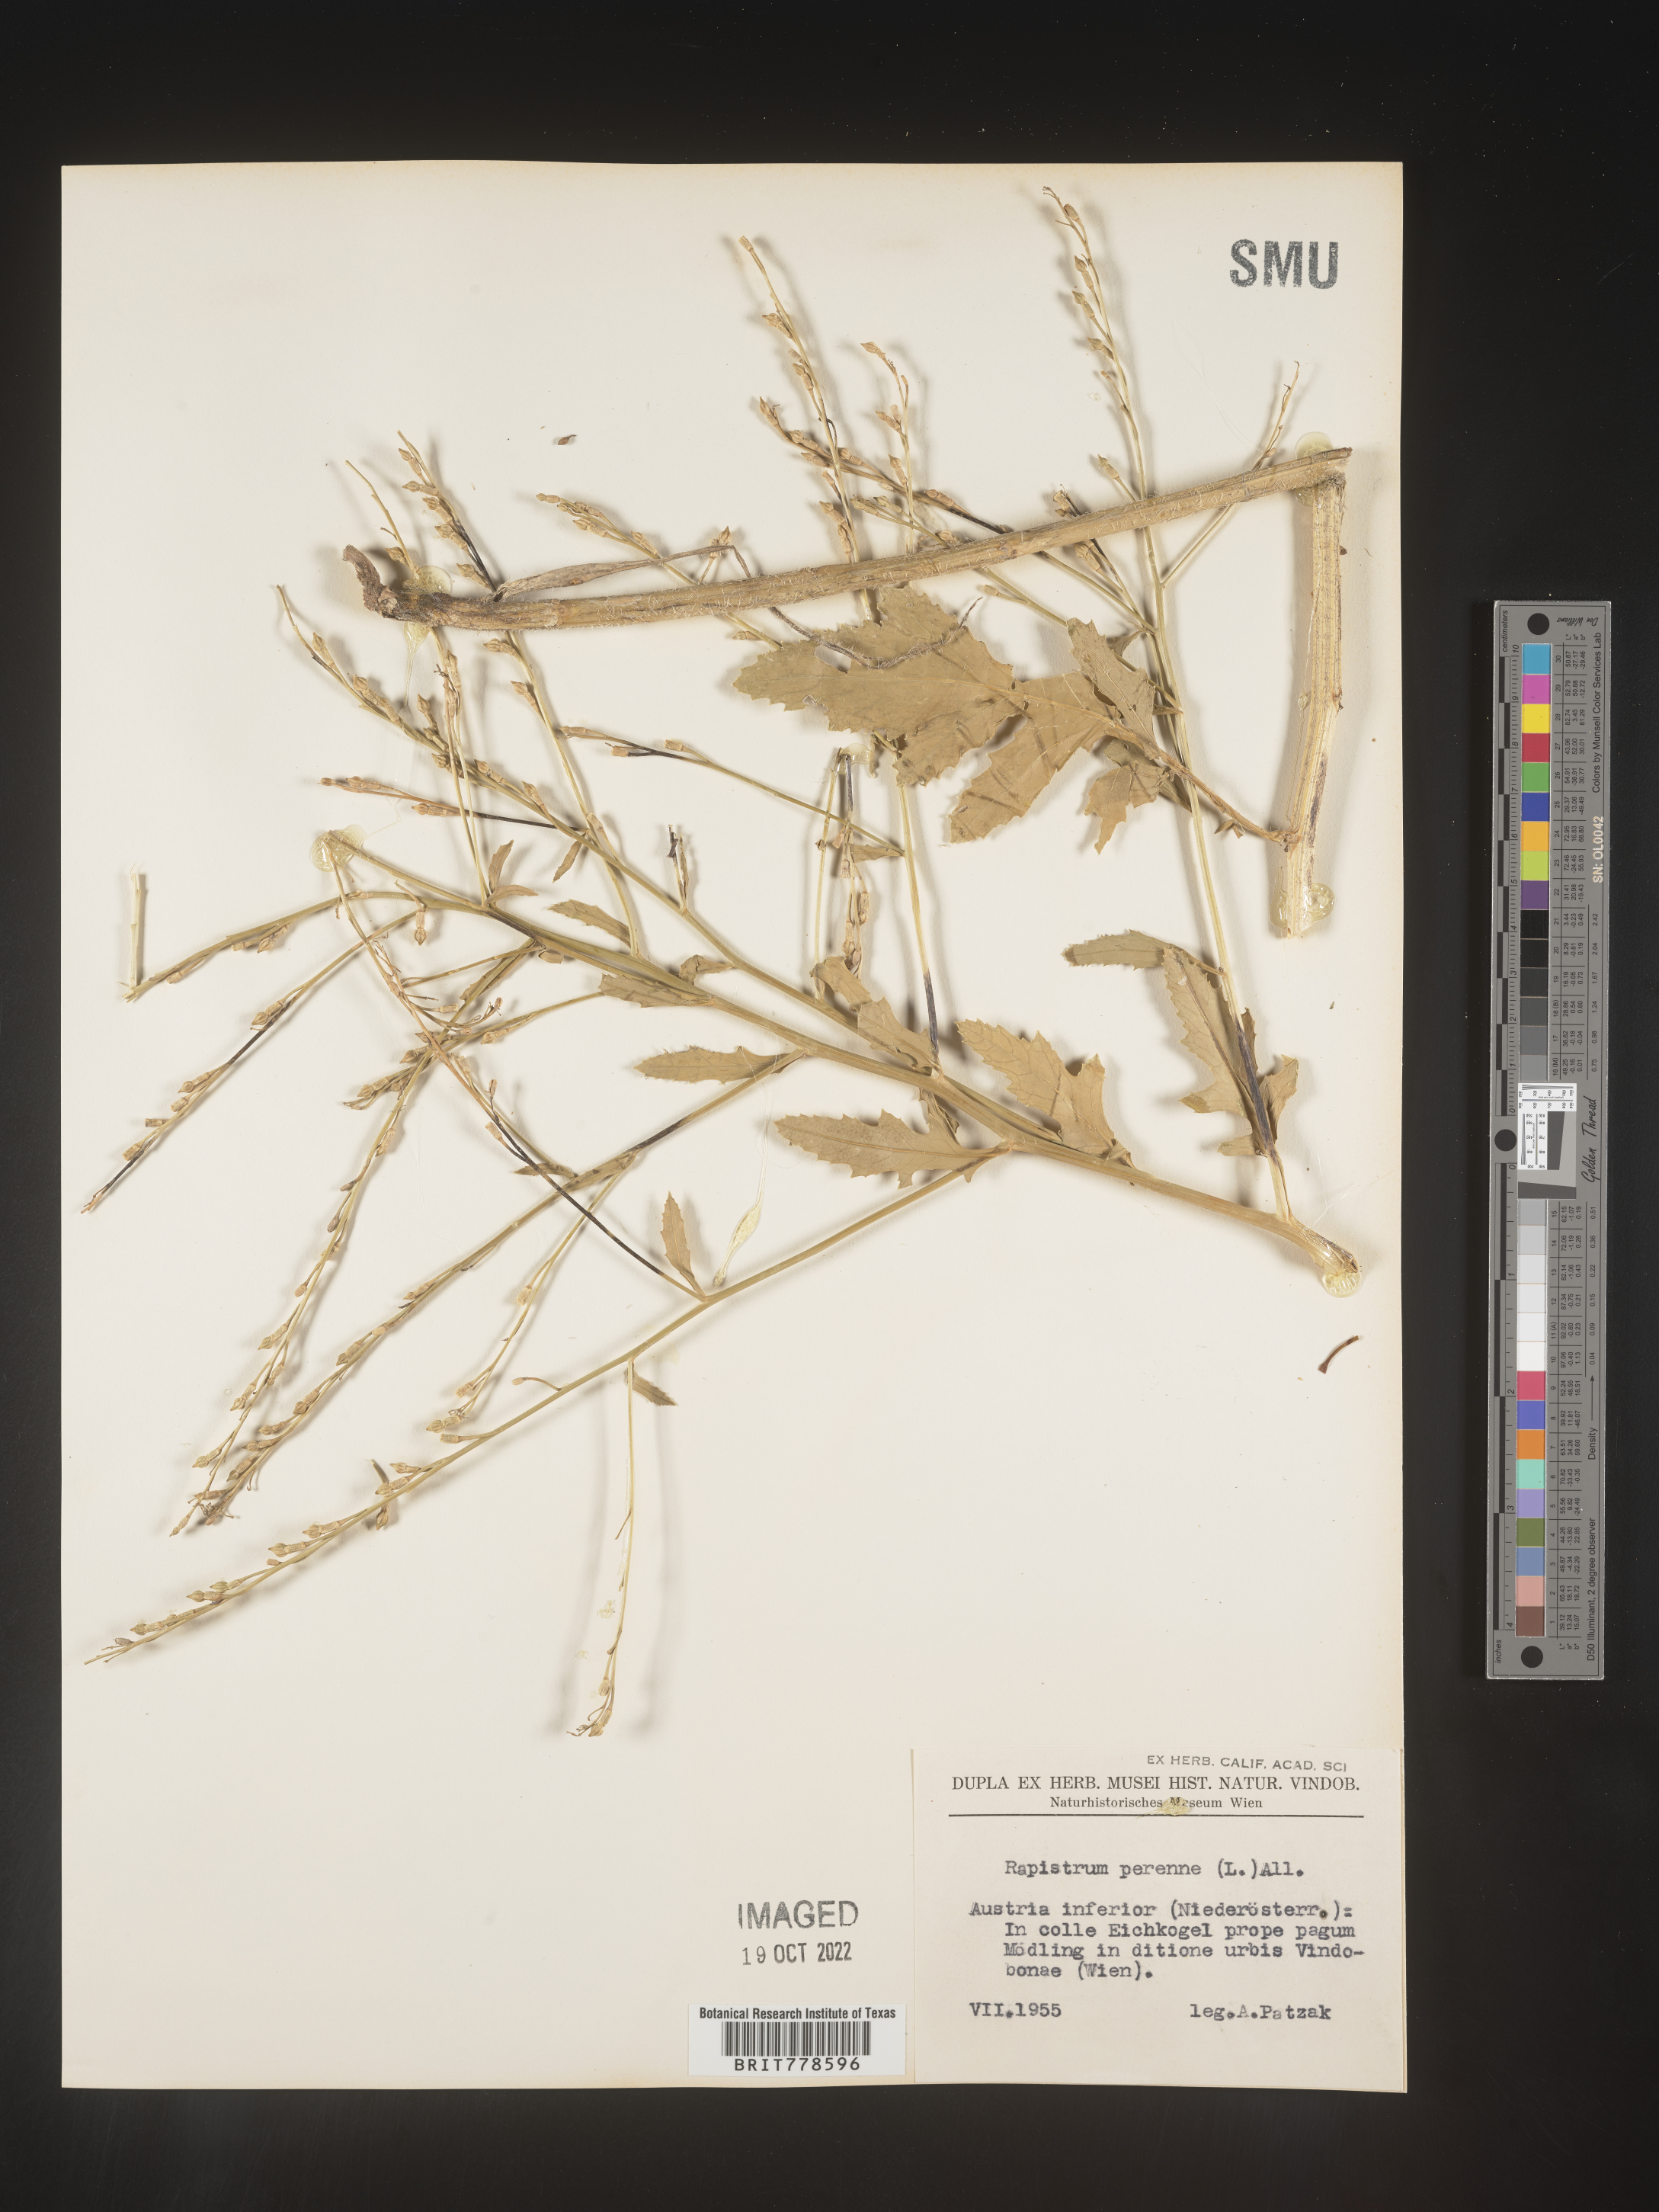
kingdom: Plantae
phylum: Tracheophyta
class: Magnoliopsida
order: Brassicales
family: Brassicaceae
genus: Rapistrum
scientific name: Rapistrum
